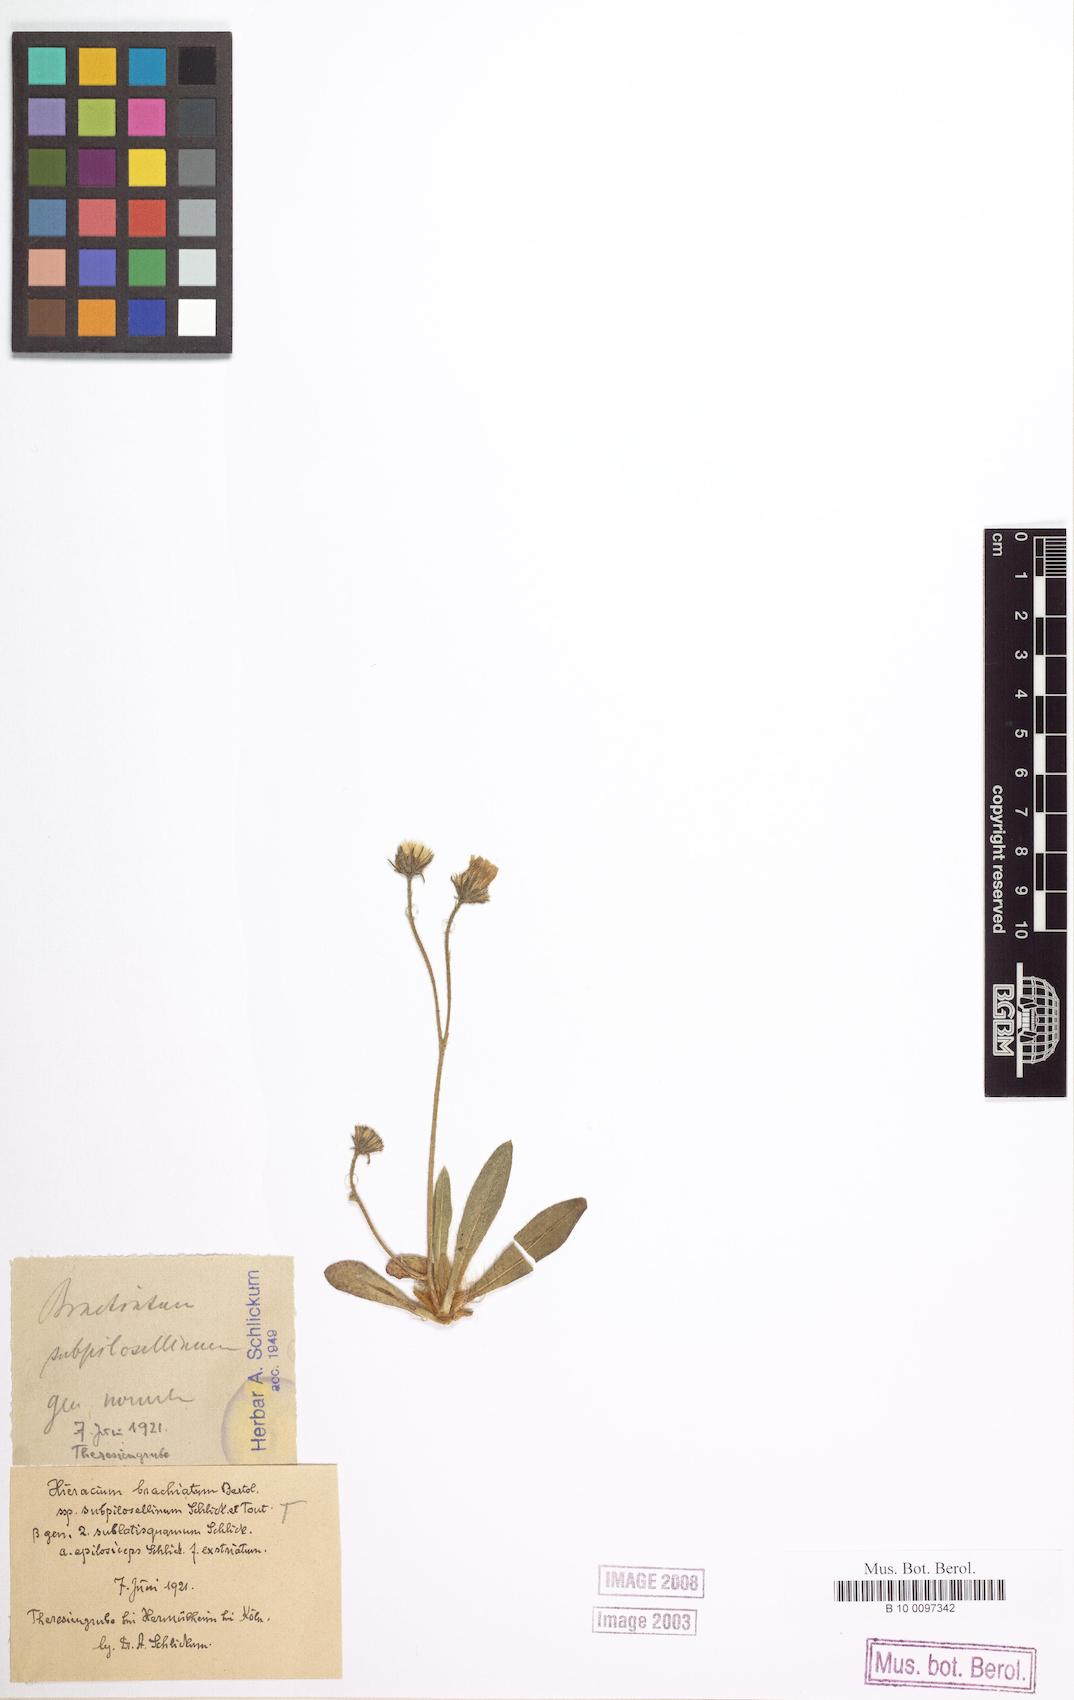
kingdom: Plantae
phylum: Tracheophyta
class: Magnoliopsida
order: Asterales
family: Asteraceae
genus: Pilosella
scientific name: Pilosella acutifolia
